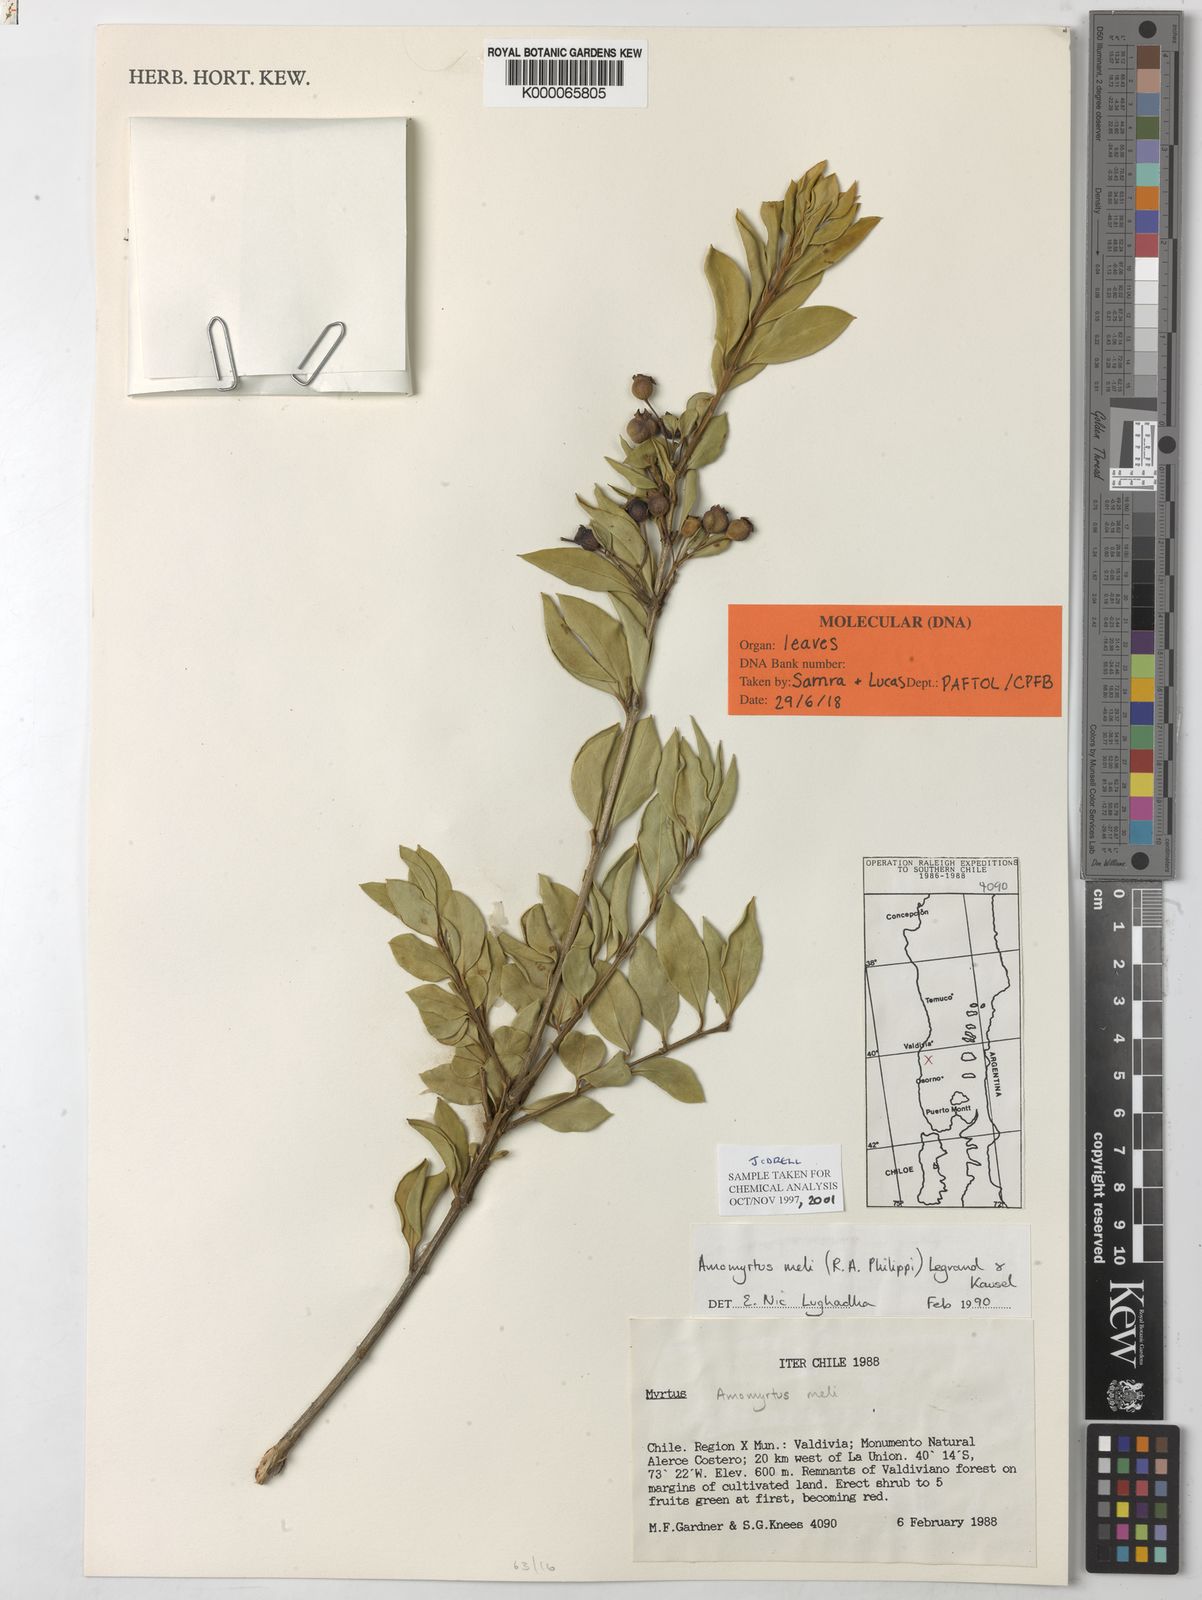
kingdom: Plantae
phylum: Tracheophyta
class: Magnoliopsida
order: Myrtales
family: Myrtaceae
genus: Amomyrtus
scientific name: Amomyrtus meli
